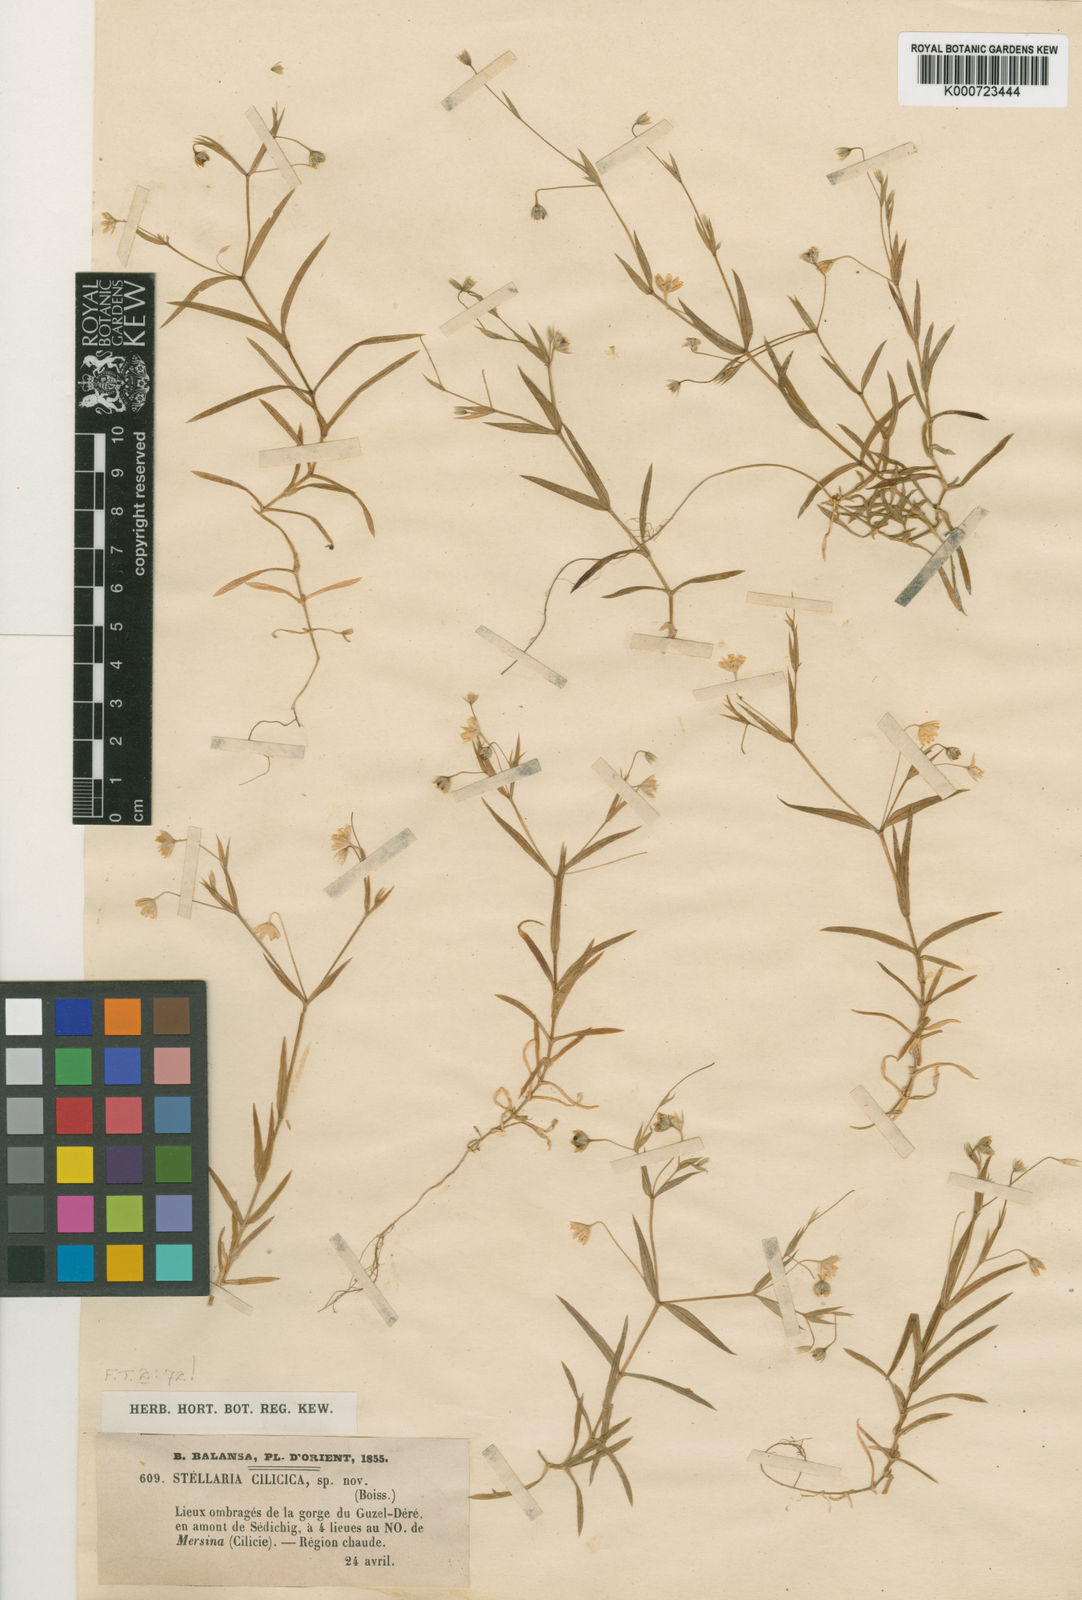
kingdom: Plantae
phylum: Tracheophyta
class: Magnoliopsida
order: Caryophyllales
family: Caryophyllaceae
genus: Rabelera
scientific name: Rabelera cilicica
